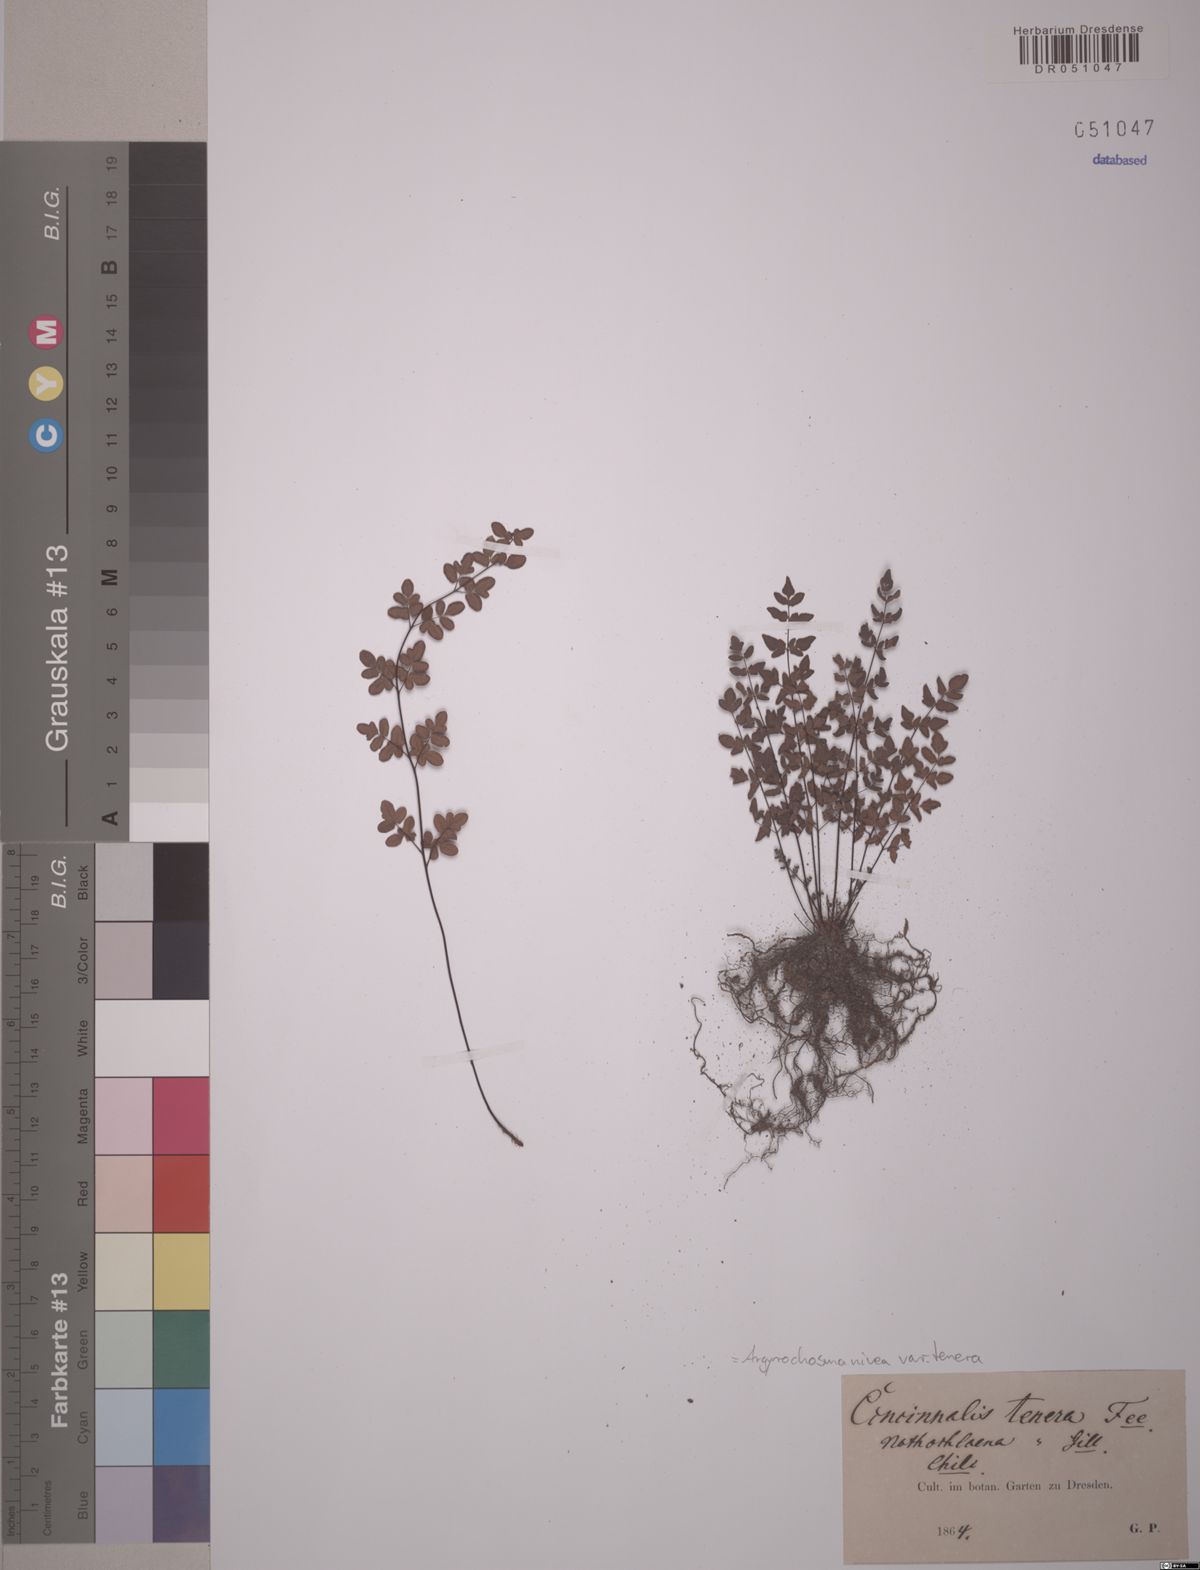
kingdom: Plantae
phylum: Tracheophyta
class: Polypodiopsida
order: Polypodiales
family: Pteridaceae
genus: Argyrochosma
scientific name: Argyrochosma tenera
